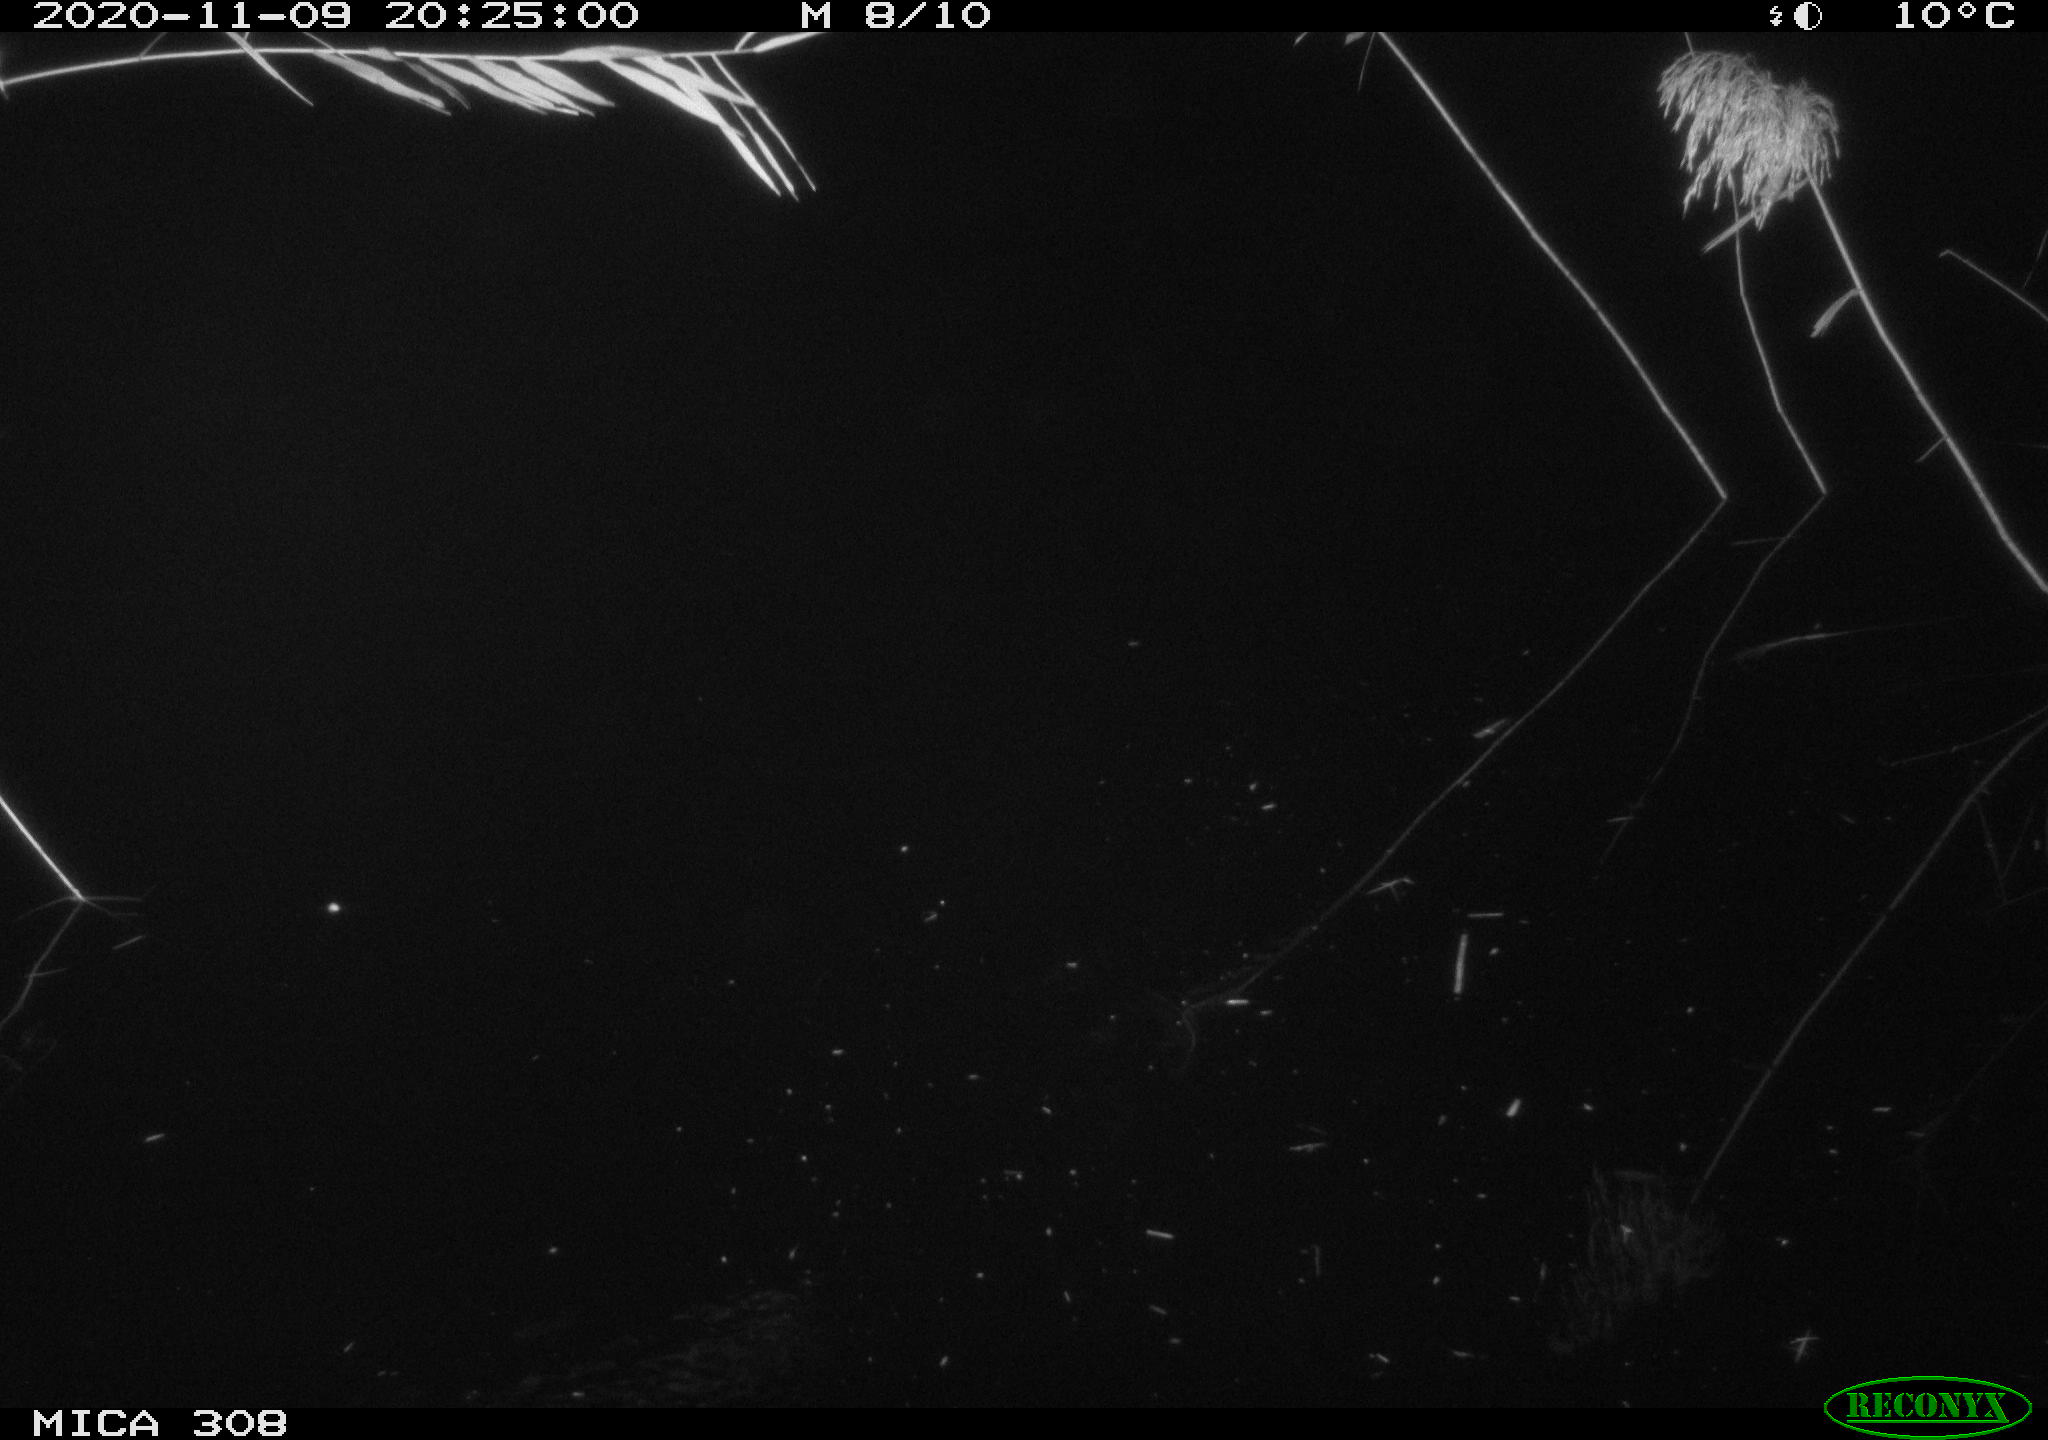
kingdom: Animalia
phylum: Chordata
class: Mammalia
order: Rodentia
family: Cricetidae
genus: Ondatra
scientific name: Ondatra zibethicus
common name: Muskrat
